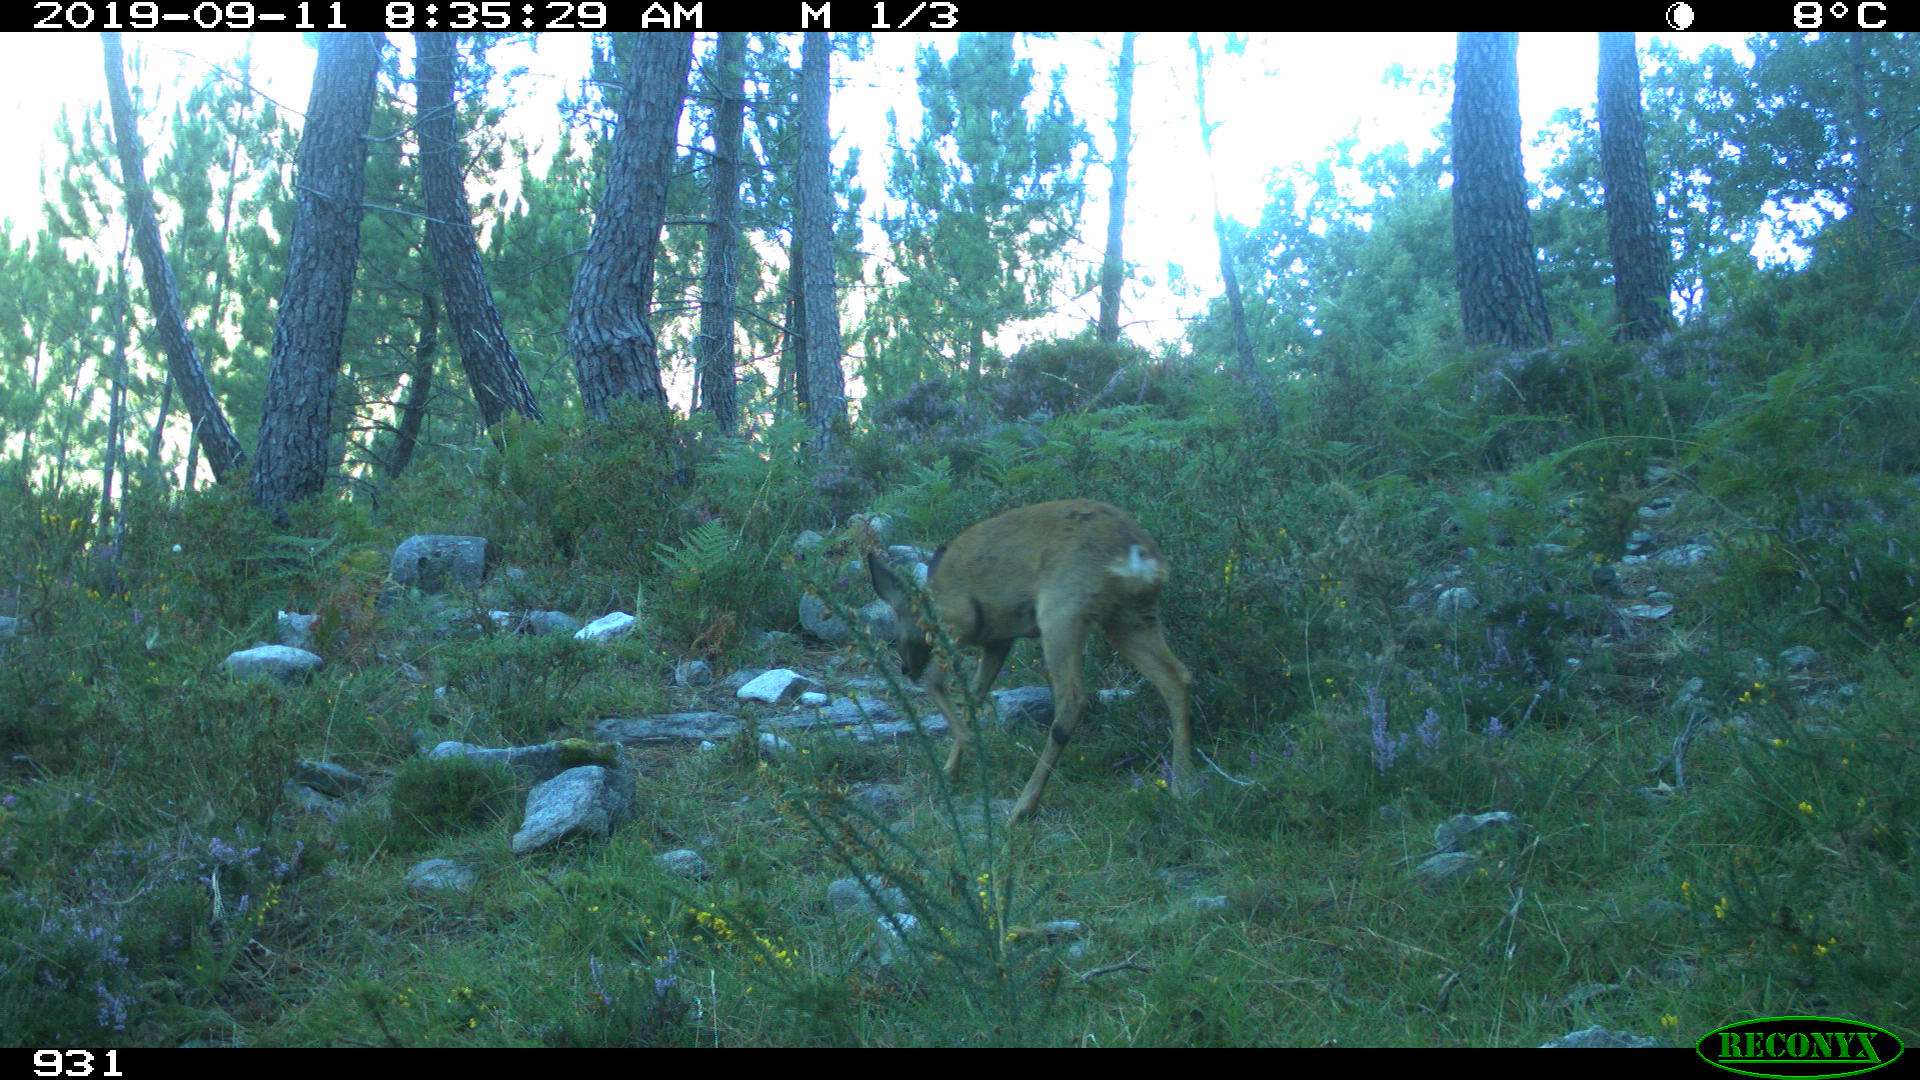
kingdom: Animalia
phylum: Chordata
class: Mammalia
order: Artiodactyla
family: Cervidae
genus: Capreolus
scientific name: Capreolus capreolus
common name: Western roe deer
